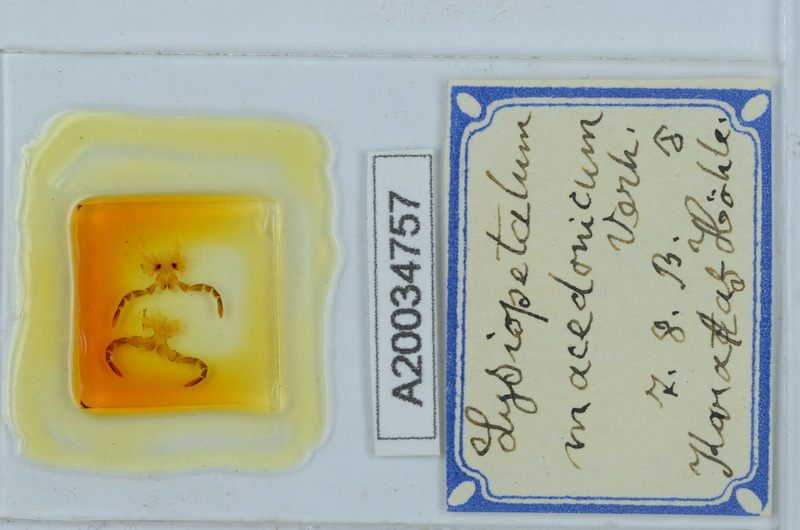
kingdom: Animalia
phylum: Arthropoda
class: Diplopoda
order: Callipodida
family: Schizopetalidae
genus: Acanthopetalum
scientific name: Acanthopetalum carinatum
